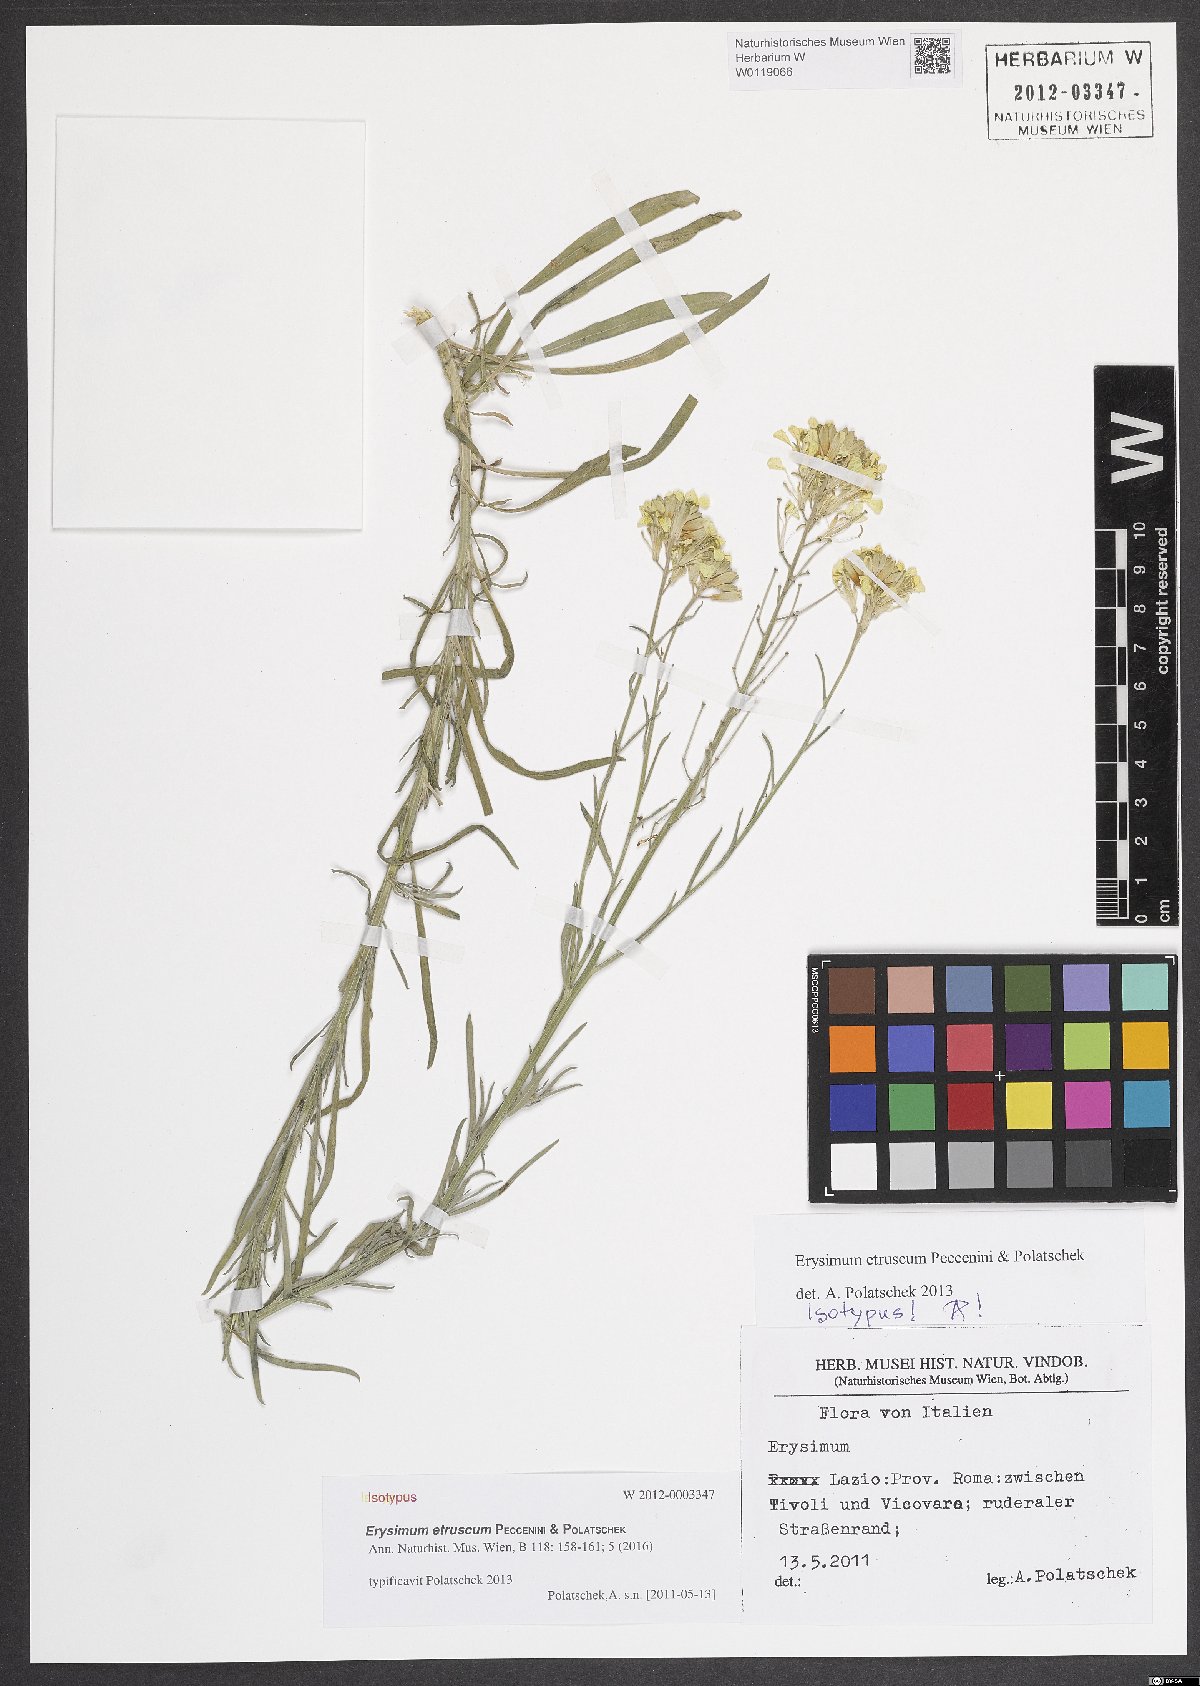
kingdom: Plantae
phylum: Tracheophyta
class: Magnoliopsida
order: Brassicales
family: Brassicaceae
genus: Erysimum
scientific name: Erysimum pseudorhaeticum
